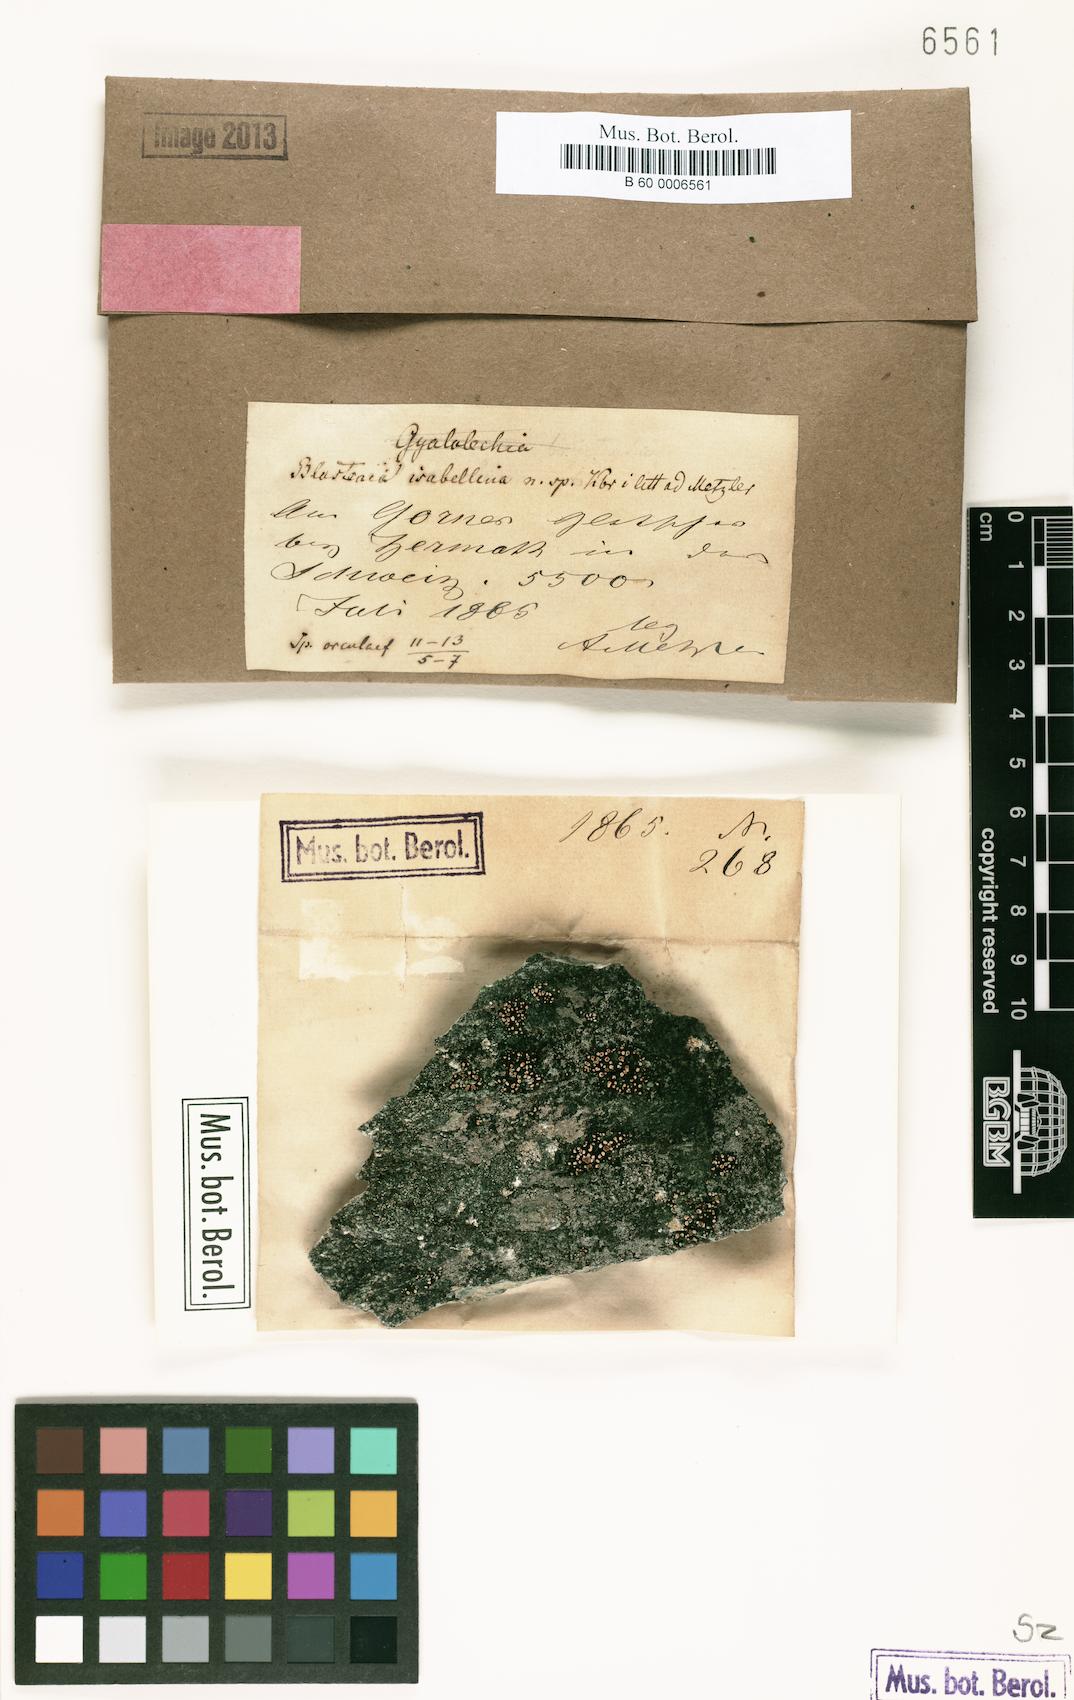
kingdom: Fungi
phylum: Ascomycota
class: Lecanoromycetes
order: Teloschistales
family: Teloschistaceae
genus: Blastenia
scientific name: Blastenia
